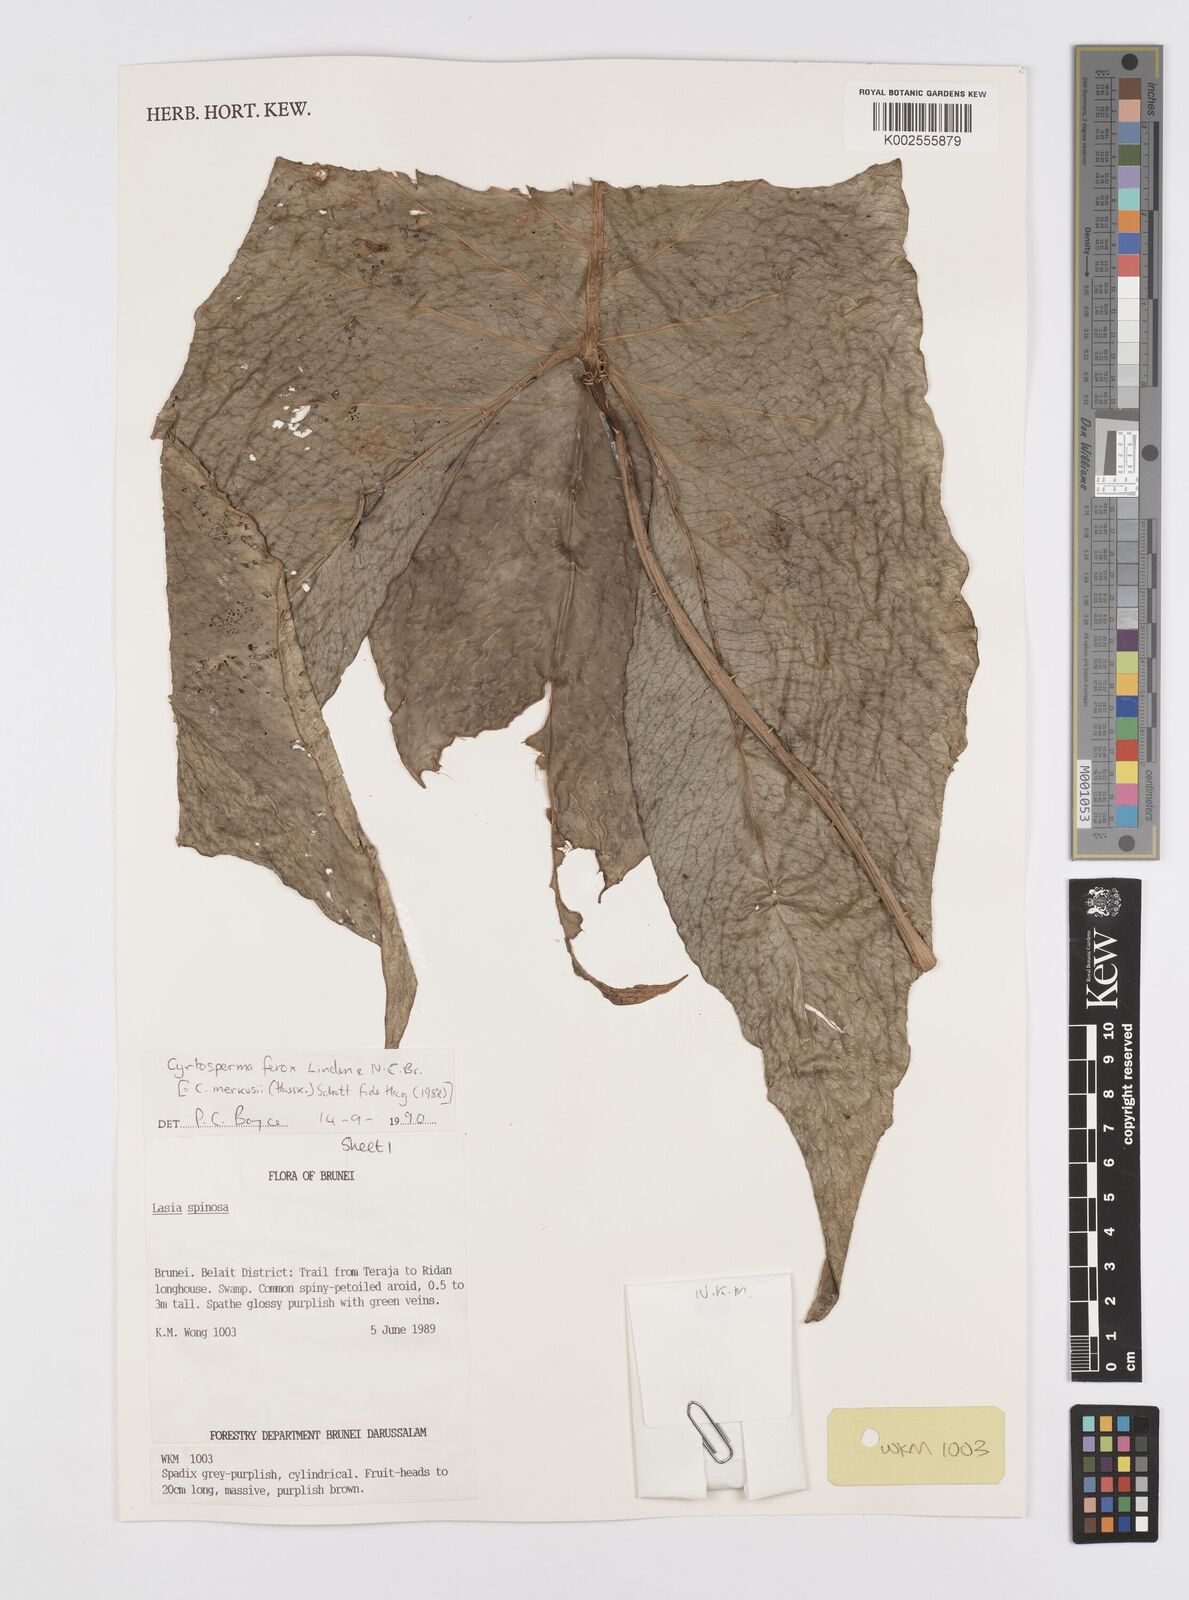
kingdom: Plantae
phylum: Tracheophyta
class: Liliopsida
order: Alismatales
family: Araceae
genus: Cyrtosperma
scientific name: Cyrtosperma merkusii
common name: Giant swamp-taro
